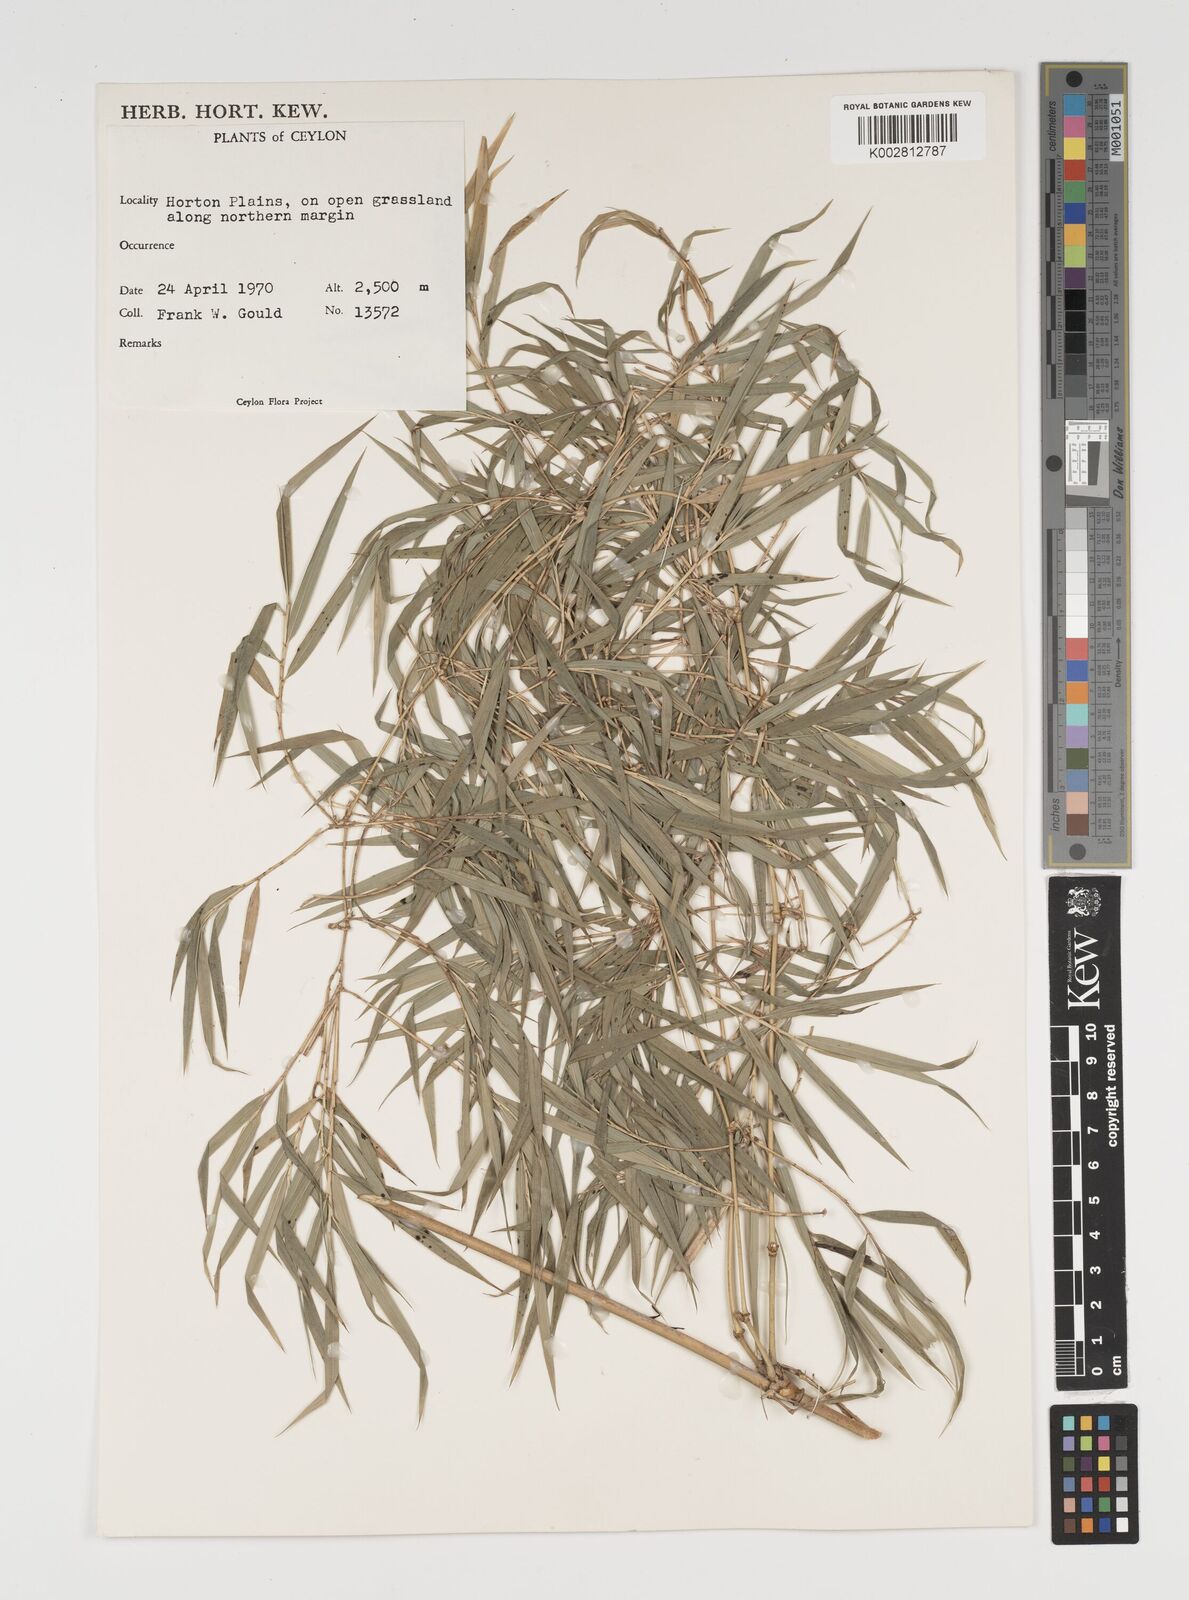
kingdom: Plantae
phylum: Tracheophyta
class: Liliopsida
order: Poales
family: Poaceae
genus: Kuruna
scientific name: Kuruna debilis
